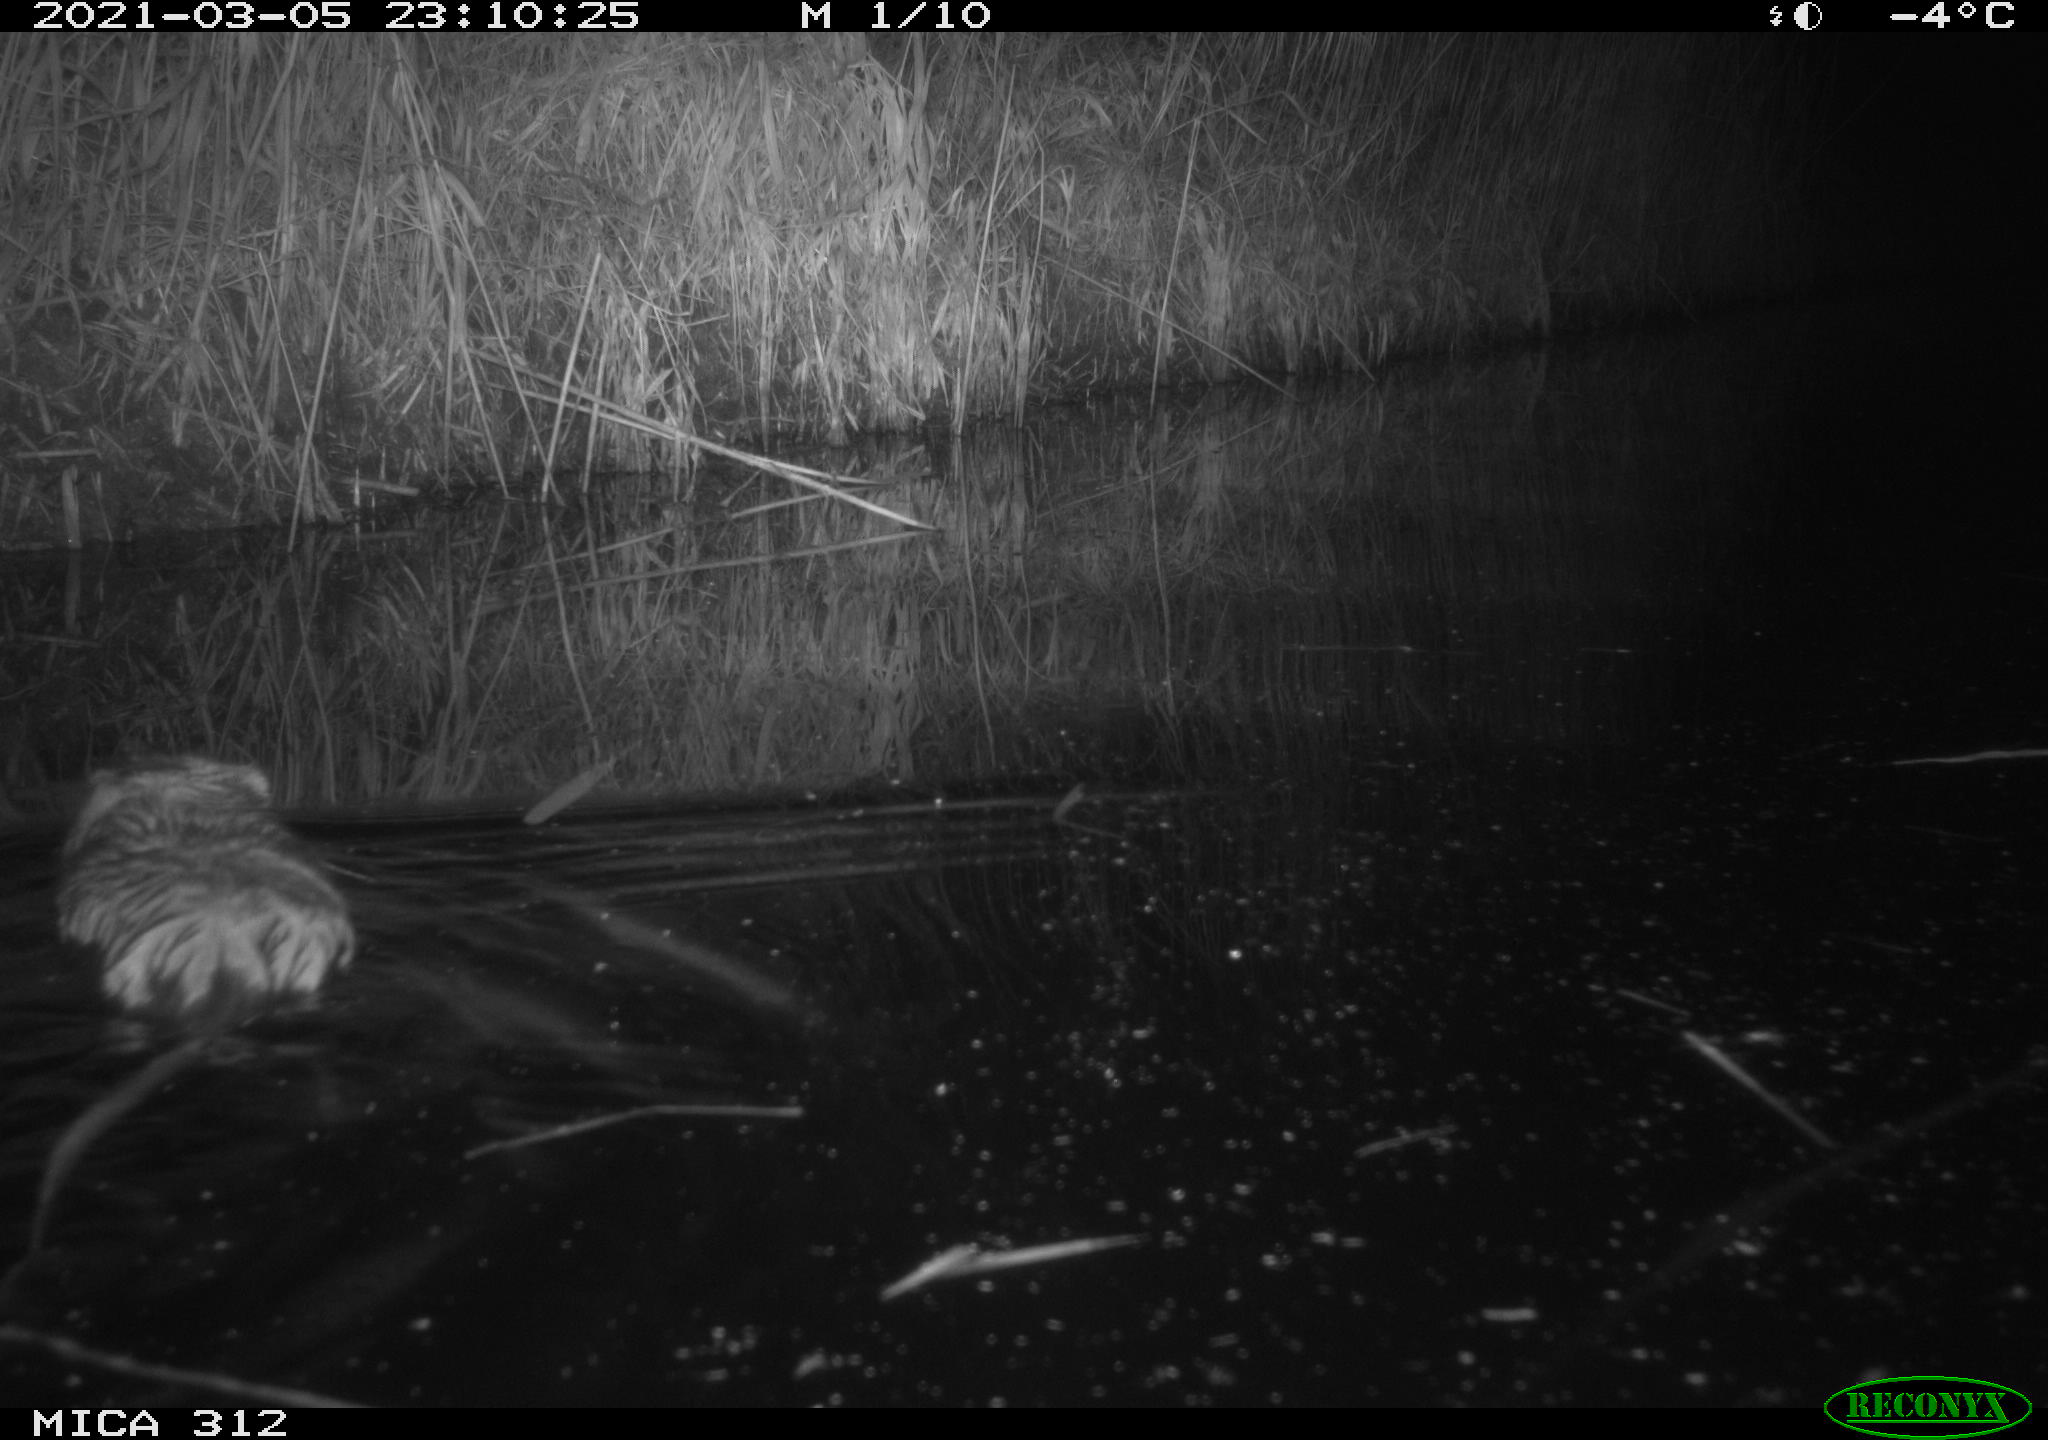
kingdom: Animalia
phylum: Chordata
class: Mammalia
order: Rodentia
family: Cricetidae
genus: Ondatra
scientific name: Ondatra zibethicus
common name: Muskrat
